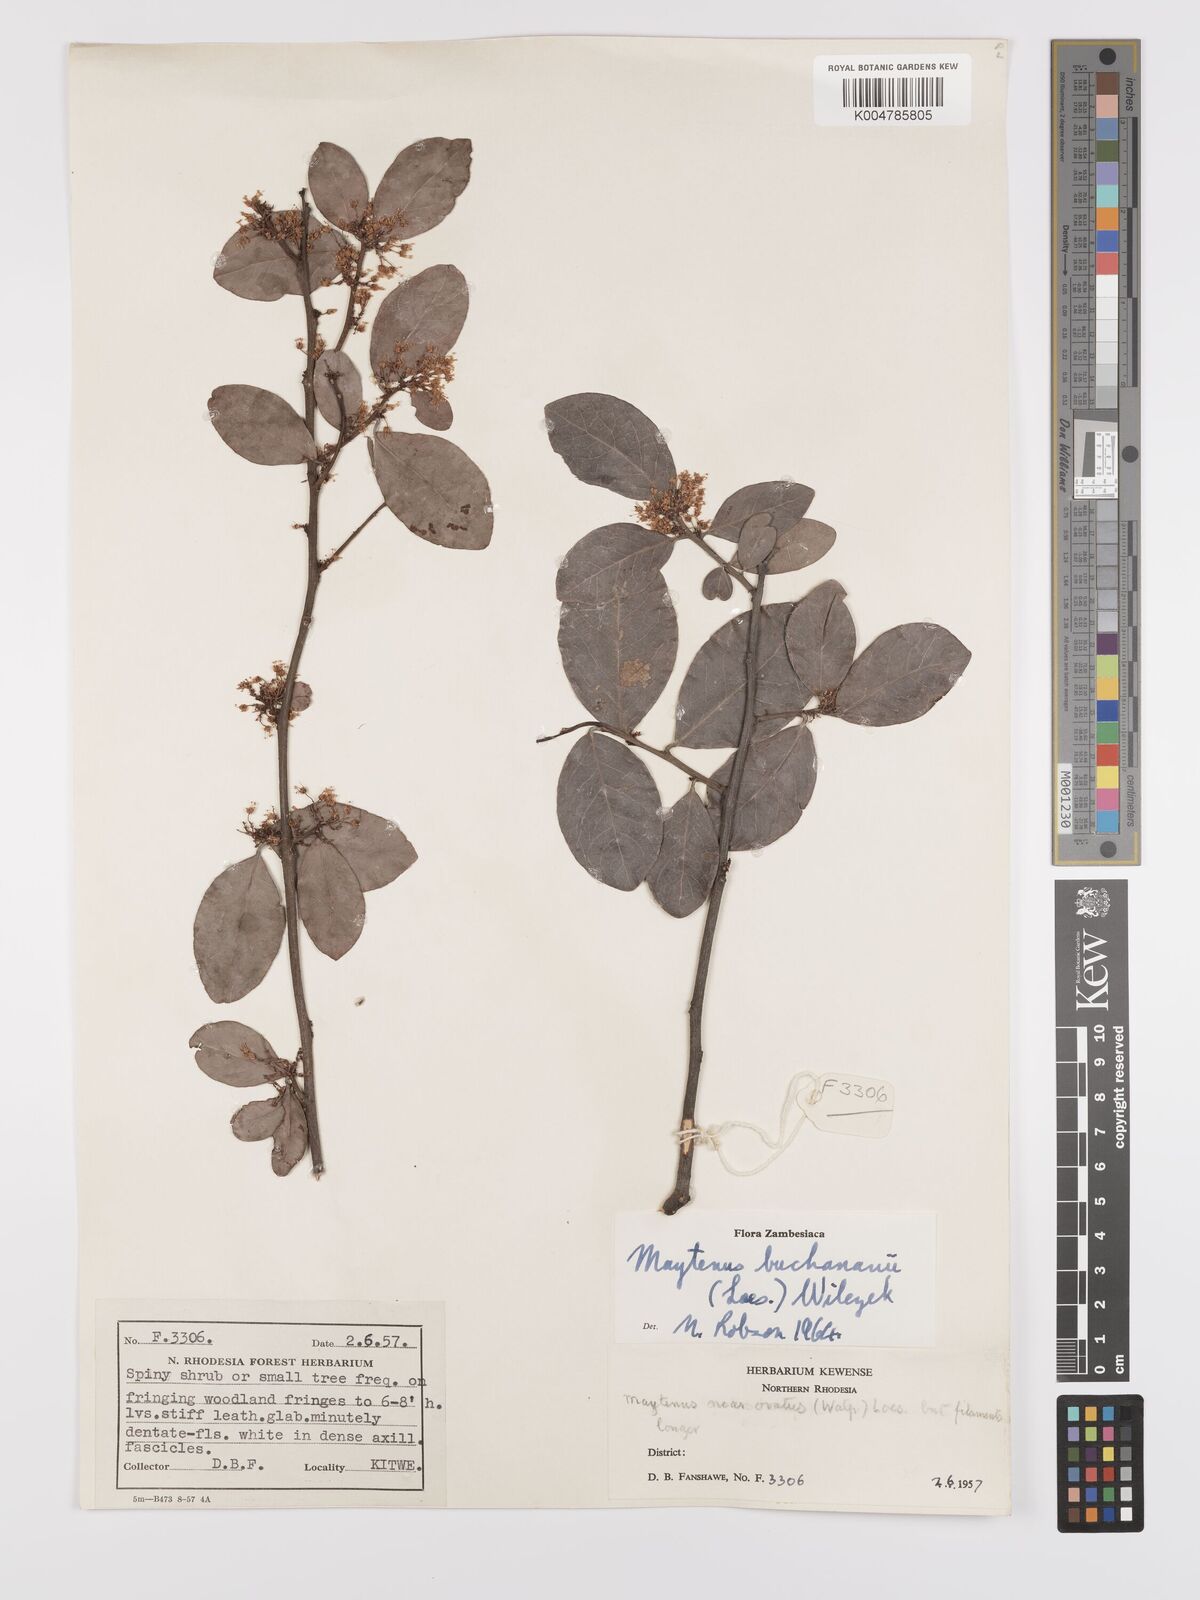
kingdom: Plantae
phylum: Tracheophyta
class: Magnoliopsida
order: Celastrales
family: Celastraceae
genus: Gymnosporia
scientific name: Gymnosporia buchananii
